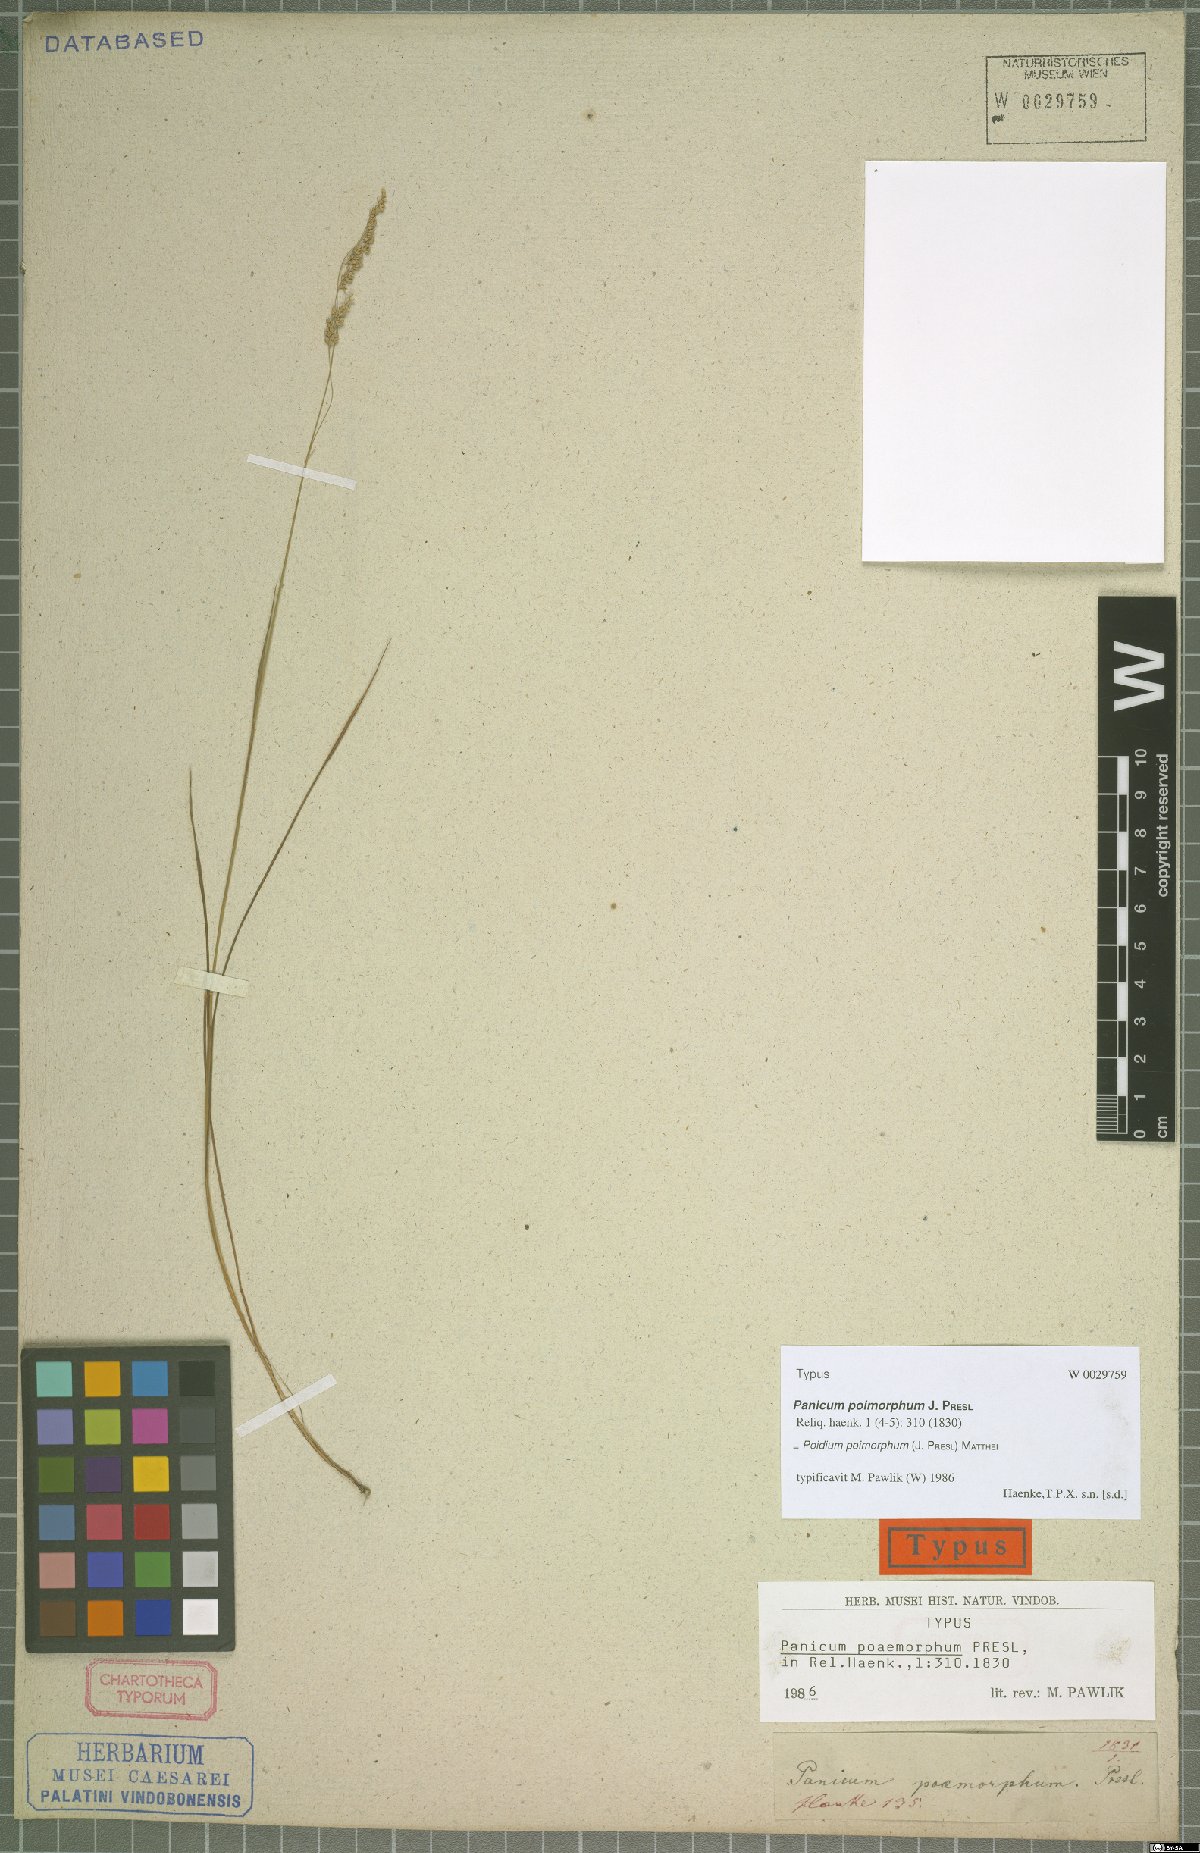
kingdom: Plantae
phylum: Tracheophyta
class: Liliopsida
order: Poales
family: Poaceae
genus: Microbriza
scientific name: Microbriza poimorpha
